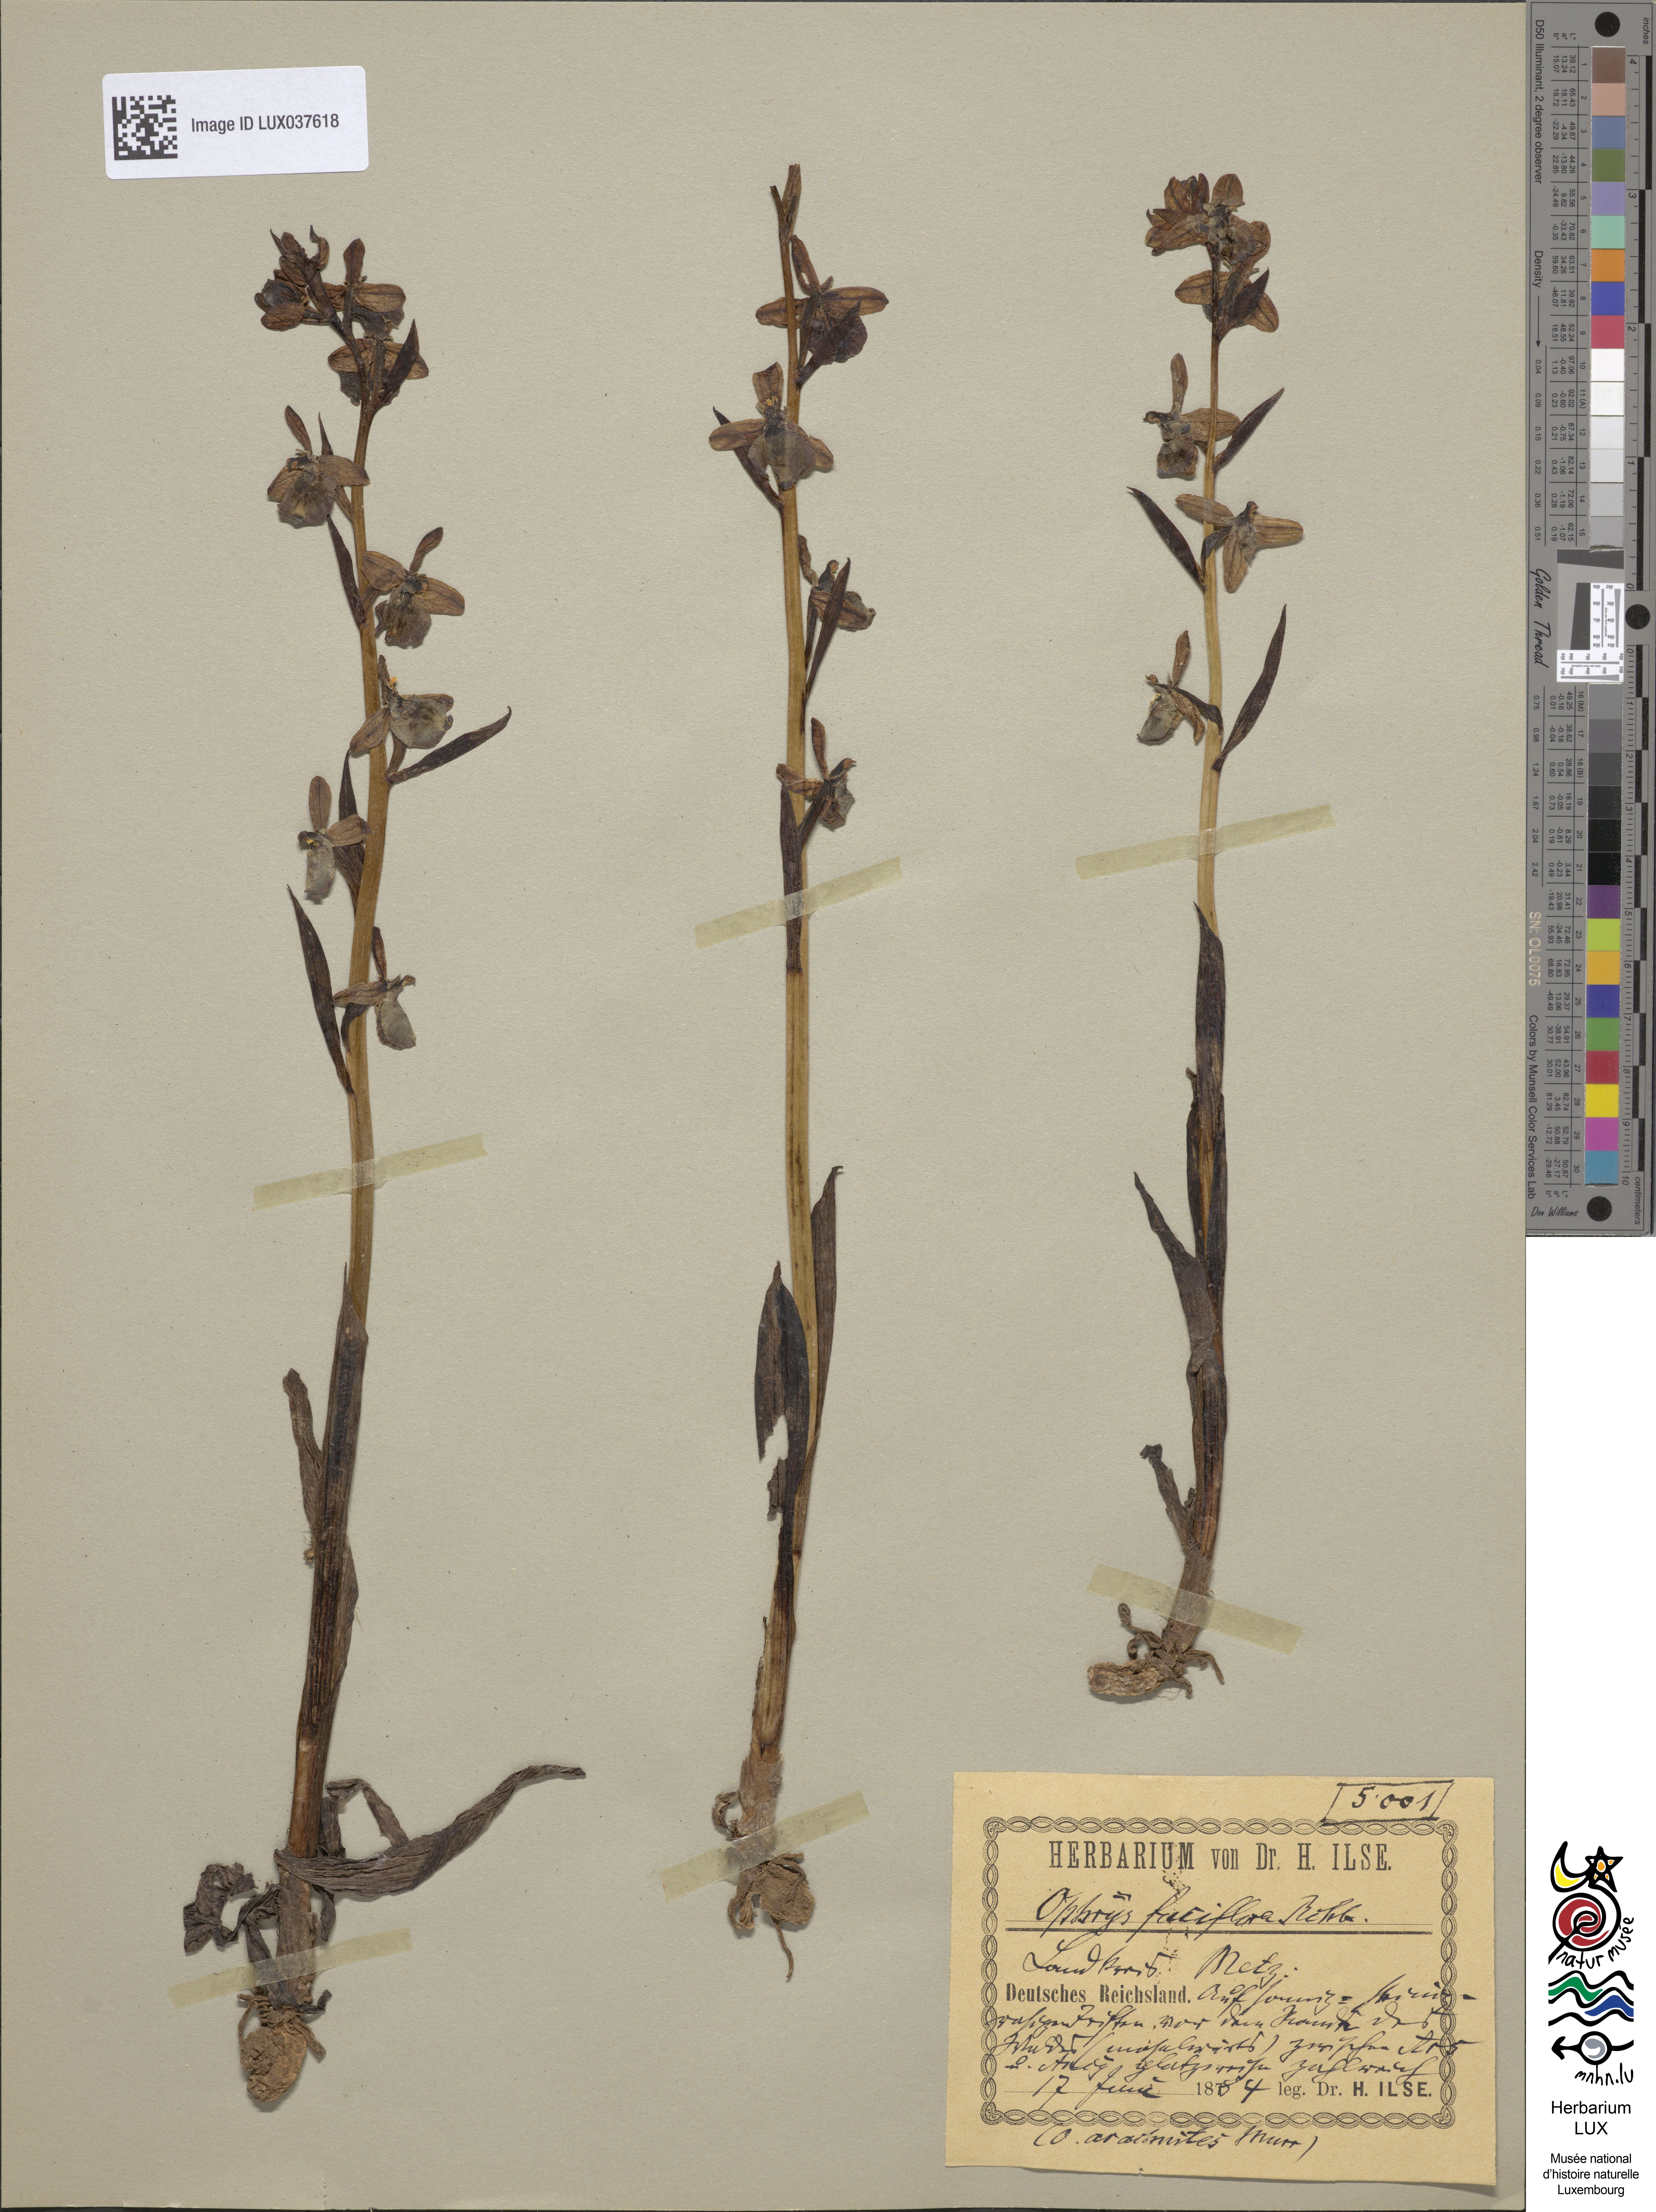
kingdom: Plantae
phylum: Tracheophyta
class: Liliopsida
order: Asparagales
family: Orchidaceae
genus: Ophrys
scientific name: Ophrys holosericea
